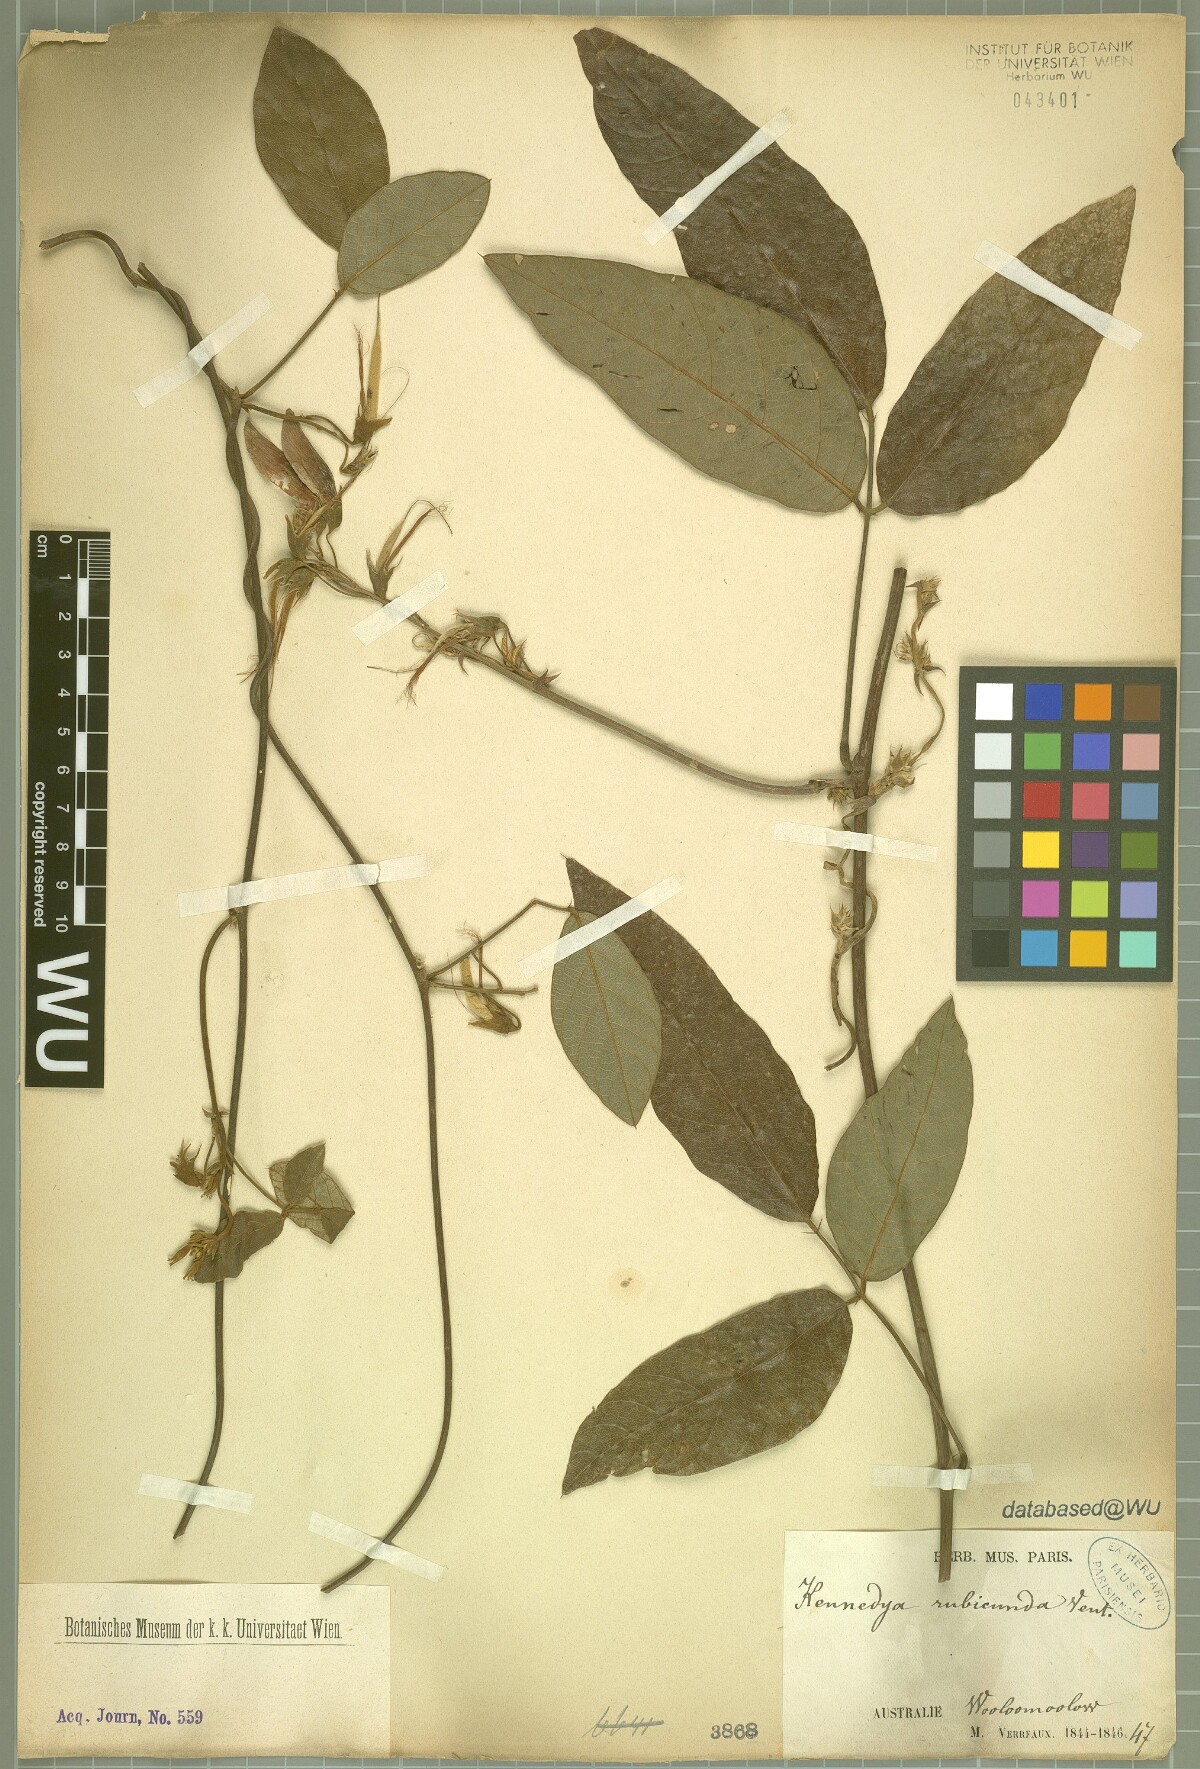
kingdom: Plantae
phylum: Tracheophyta
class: Magnoliopsida
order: Fabales
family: Fabaceae
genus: Kennedia
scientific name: Kennedia rubicunda
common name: Red kennedy-pea
